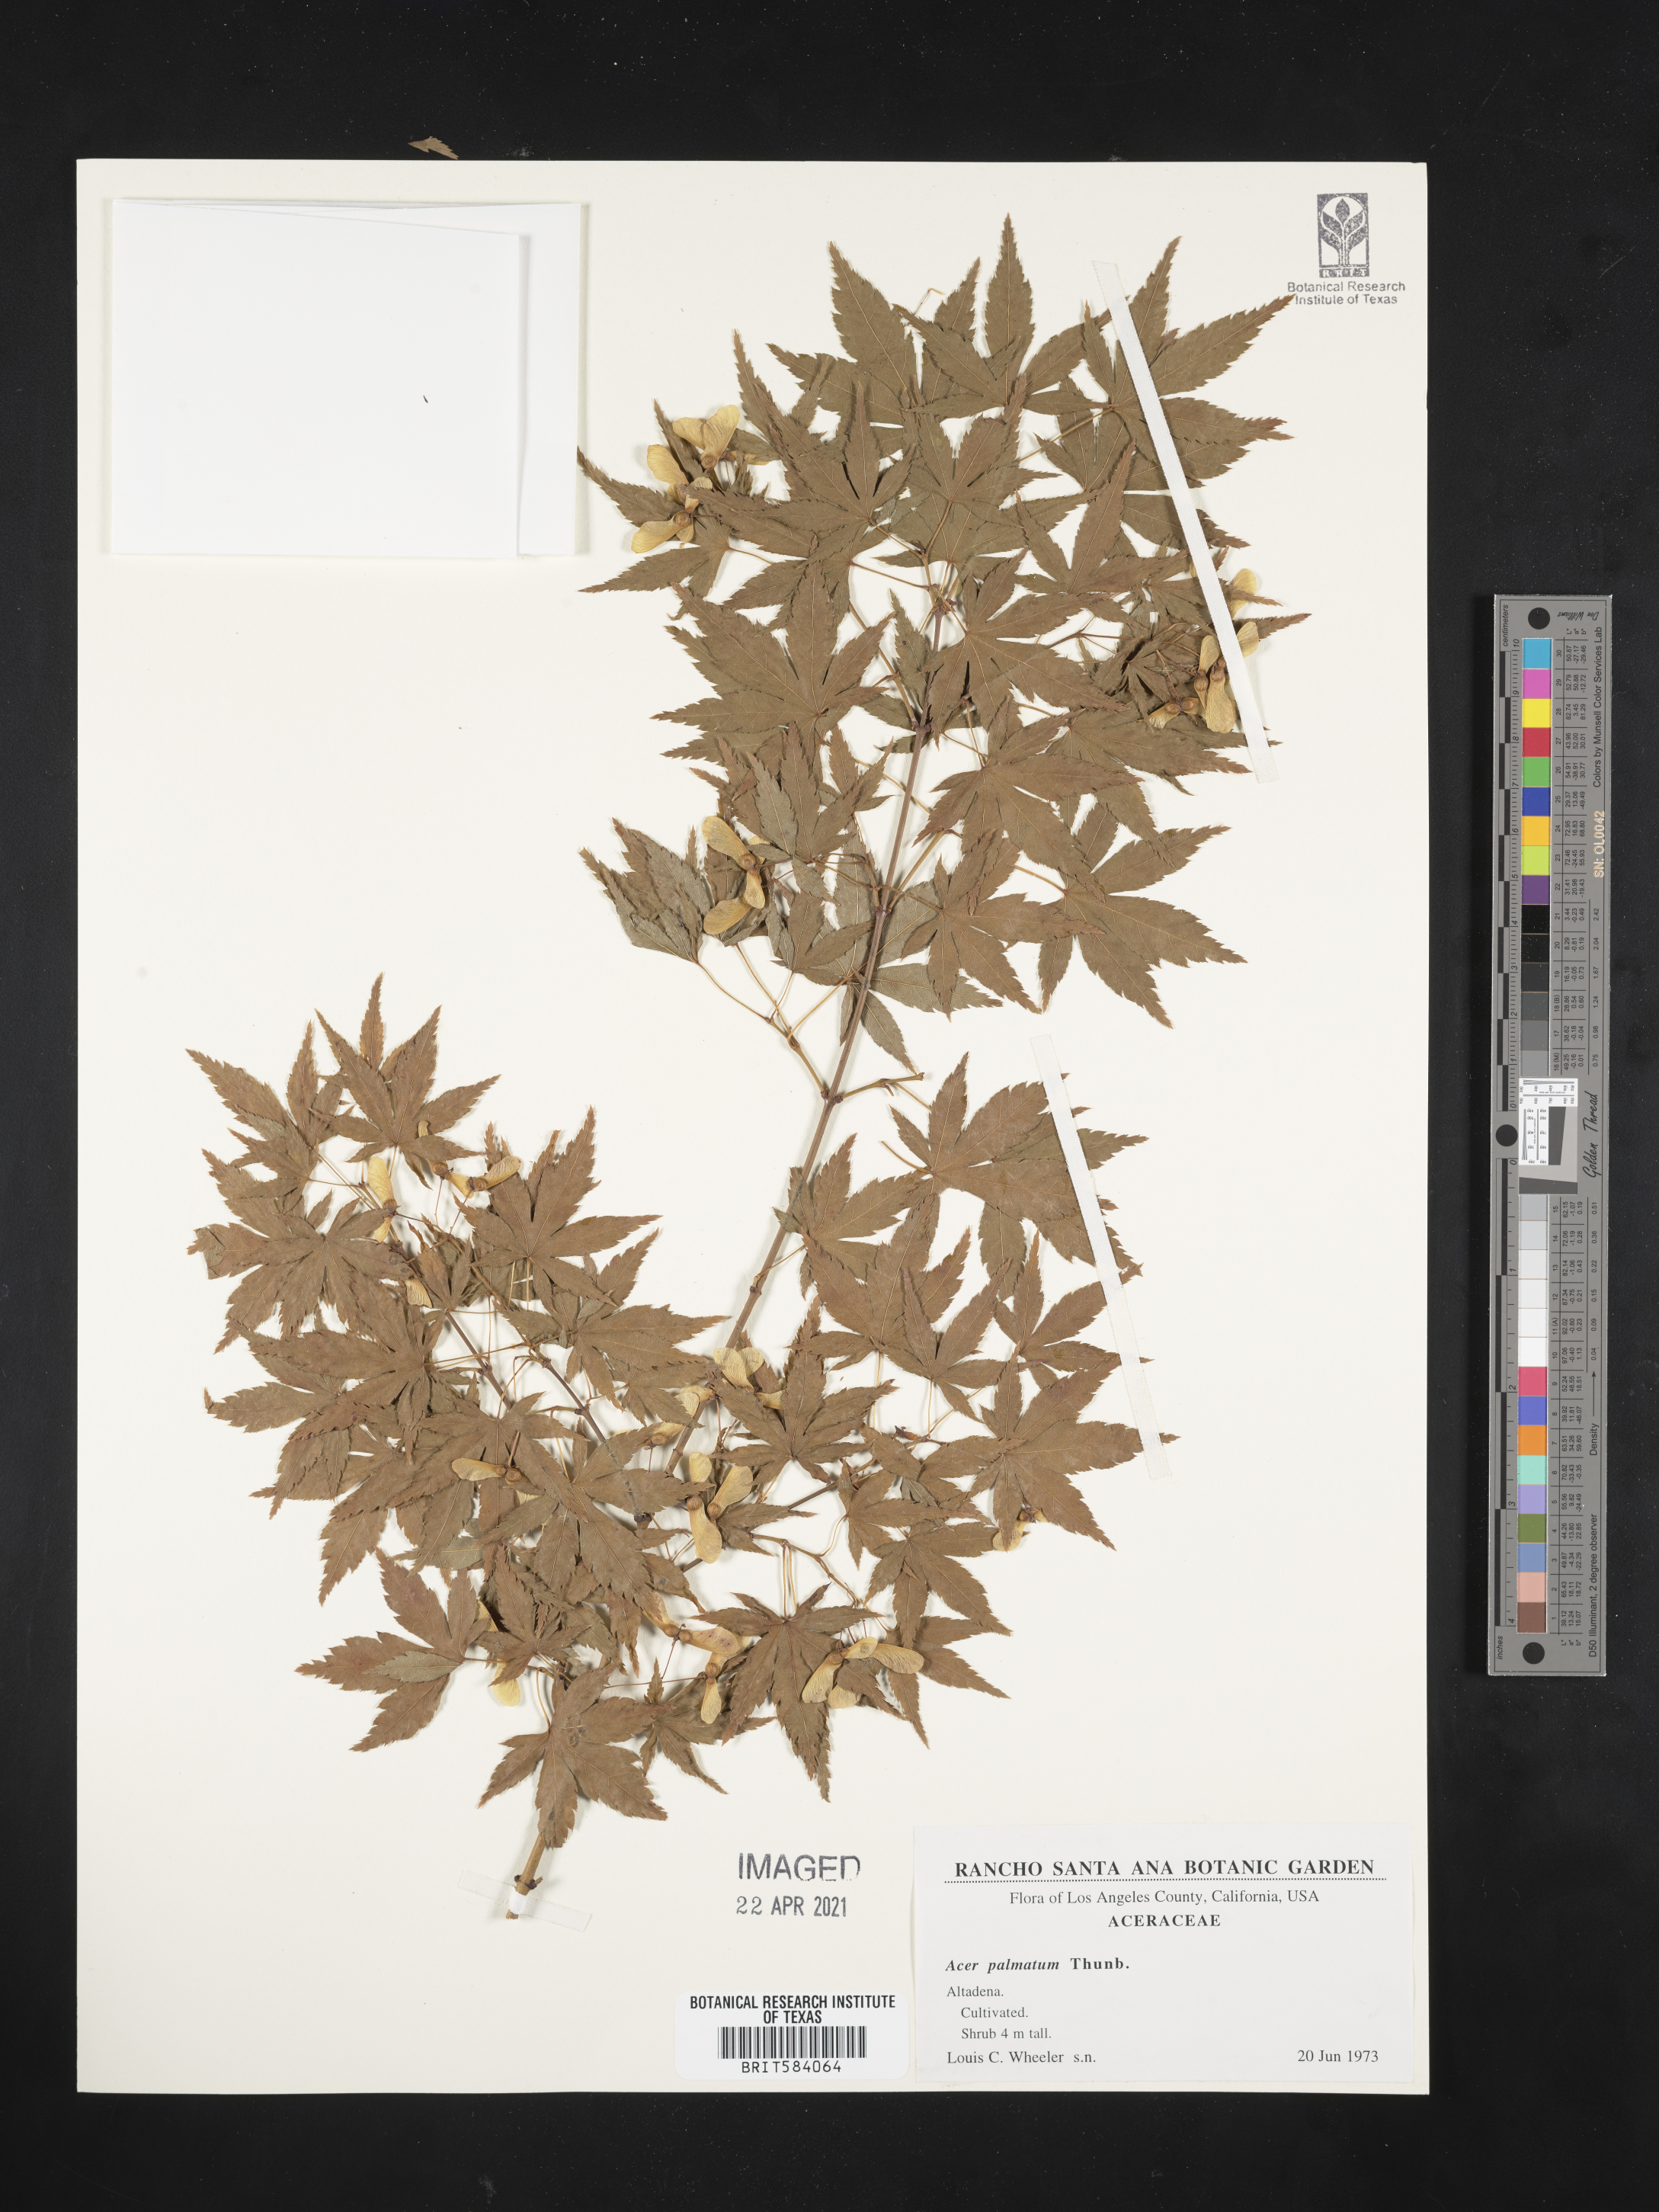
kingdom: Plantae
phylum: Tracheophyta
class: Magnoliopsida
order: Sapindales
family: Sapindaceae
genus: Acer
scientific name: Acer palmatum
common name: Japanese maple
